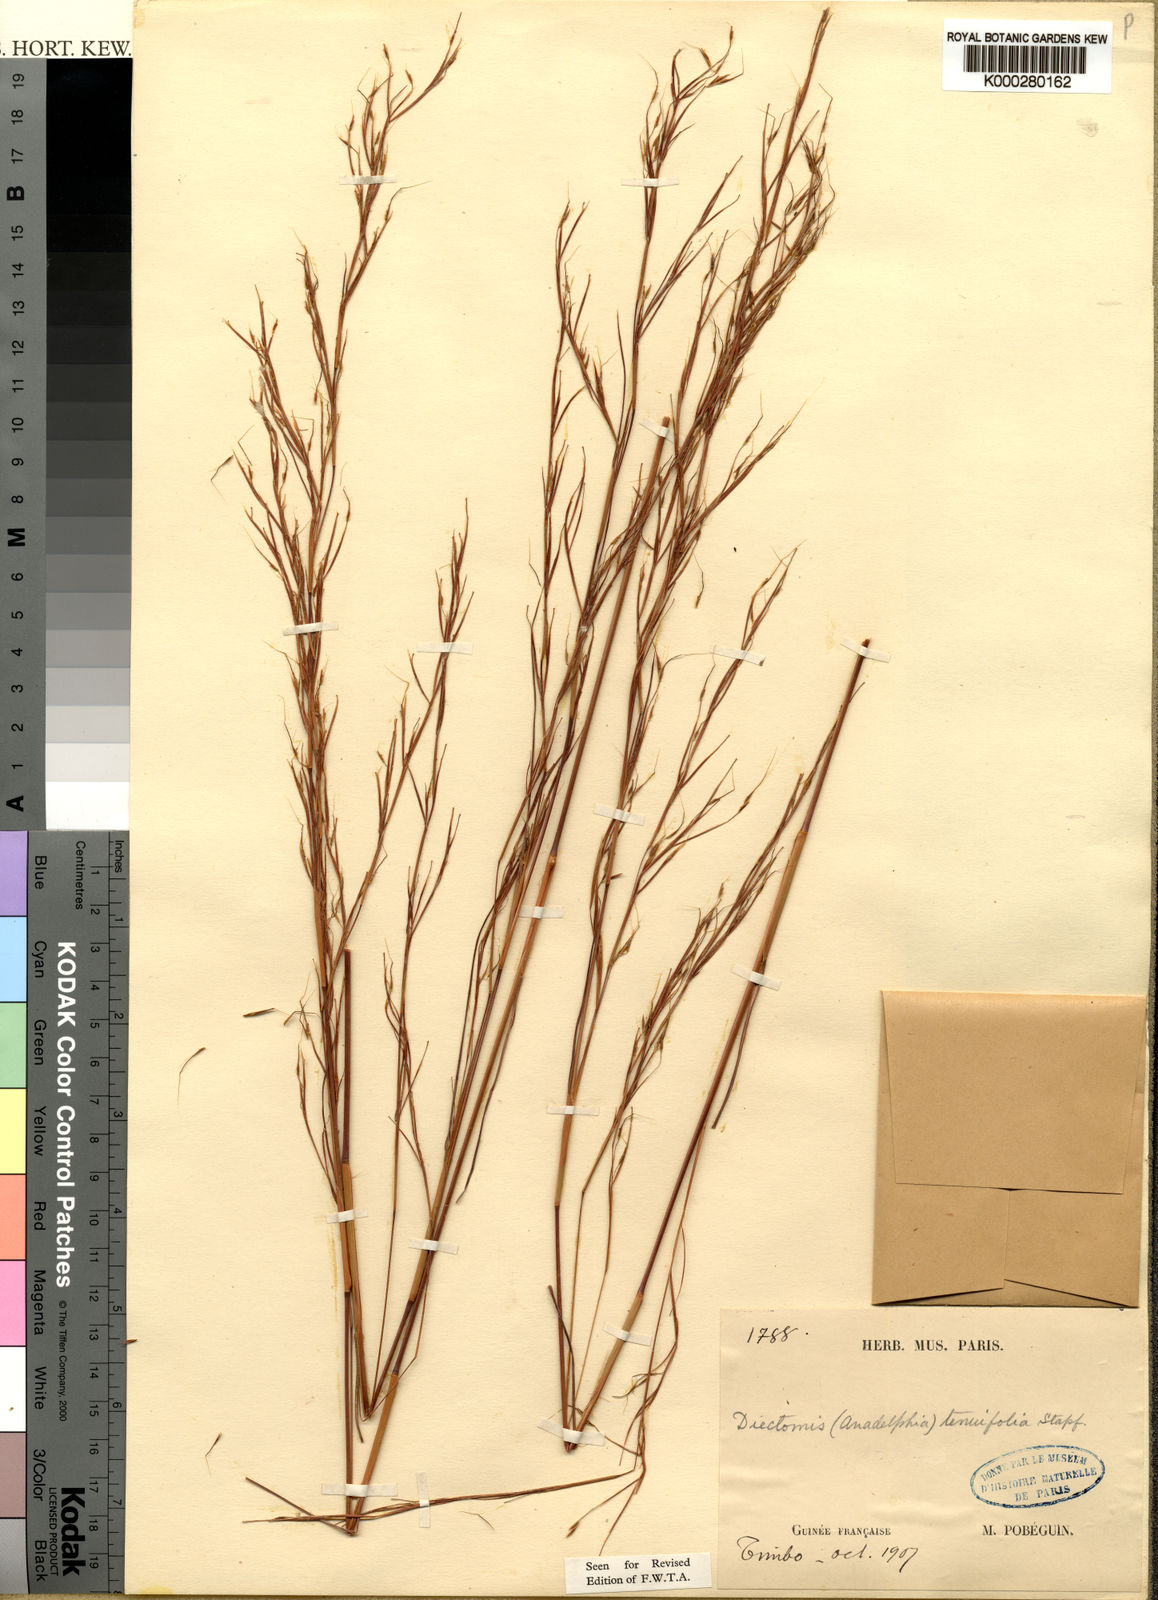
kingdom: Plantae
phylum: Tracheophyta
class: Liliopsida
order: Poales
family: Poaceae
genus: Anadelphia
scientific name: Anadelphia leptocoma
